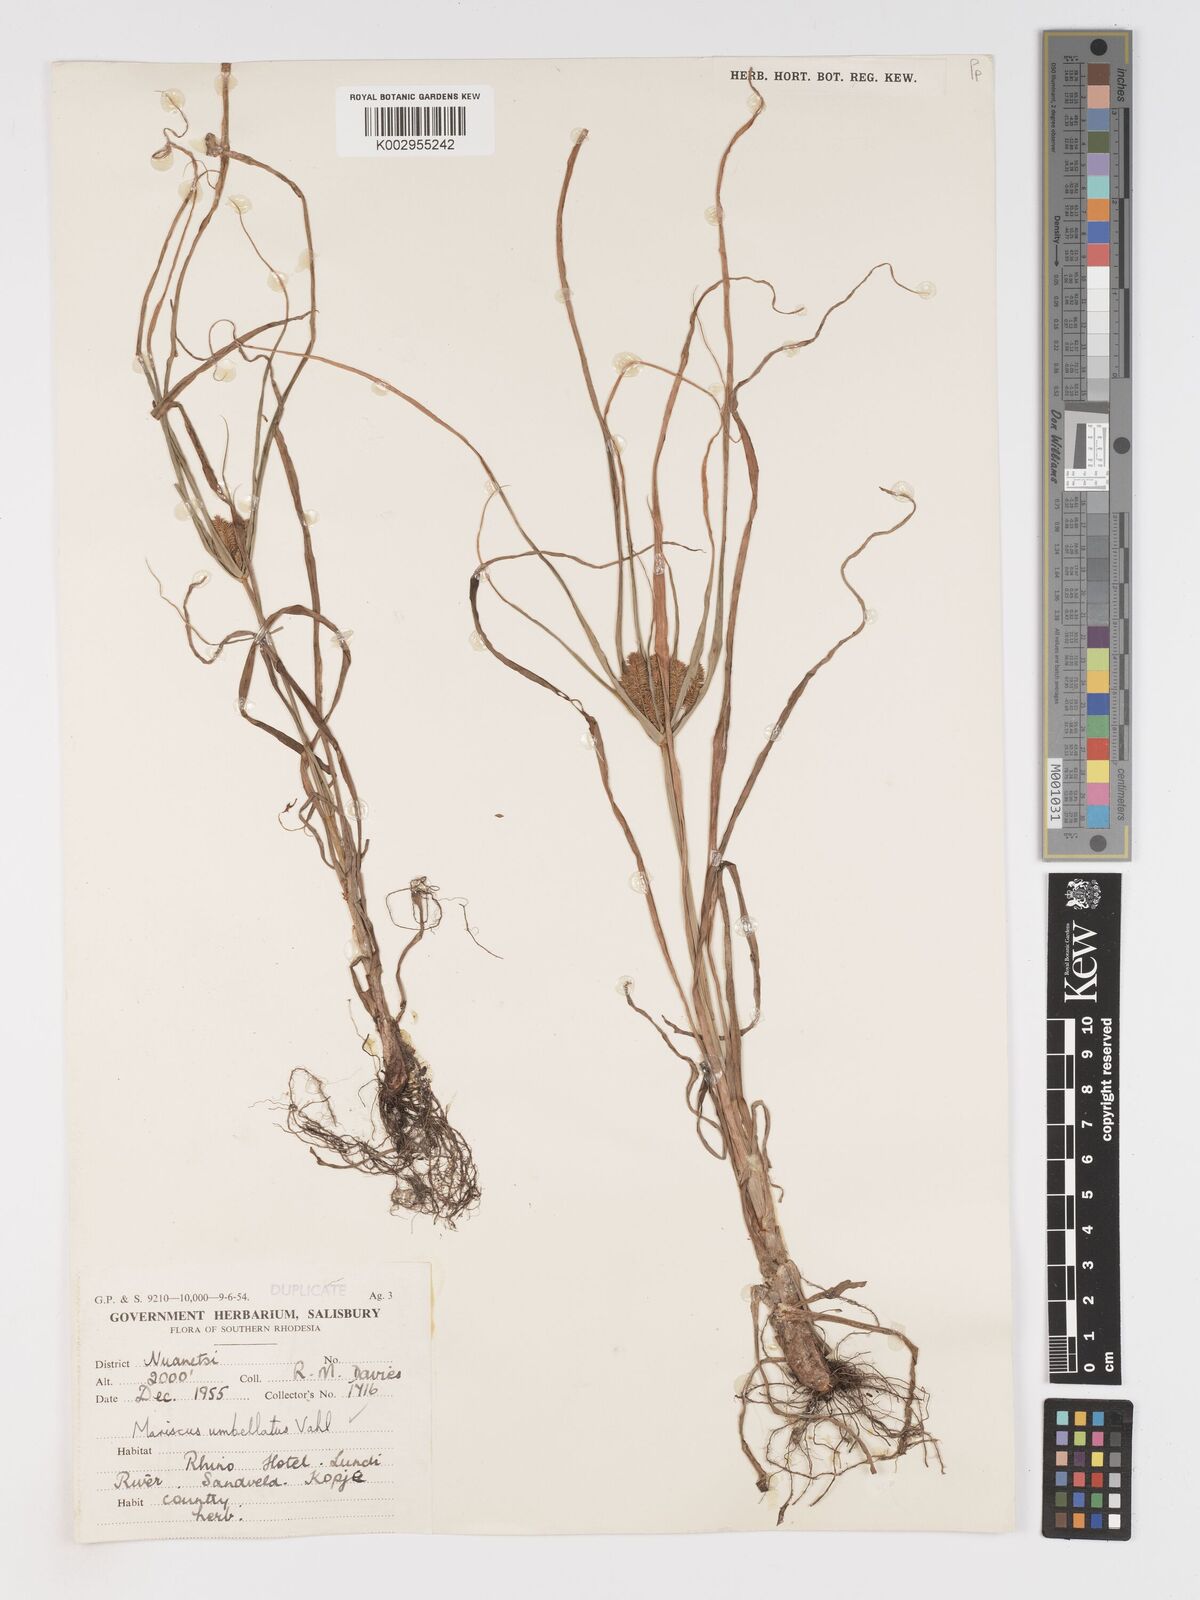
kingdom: Plantae
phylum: Tracheophyta
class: Liliopsida
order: Poales
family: Cyperaceae
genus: Cyperus
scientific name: Cyperus chersinus
